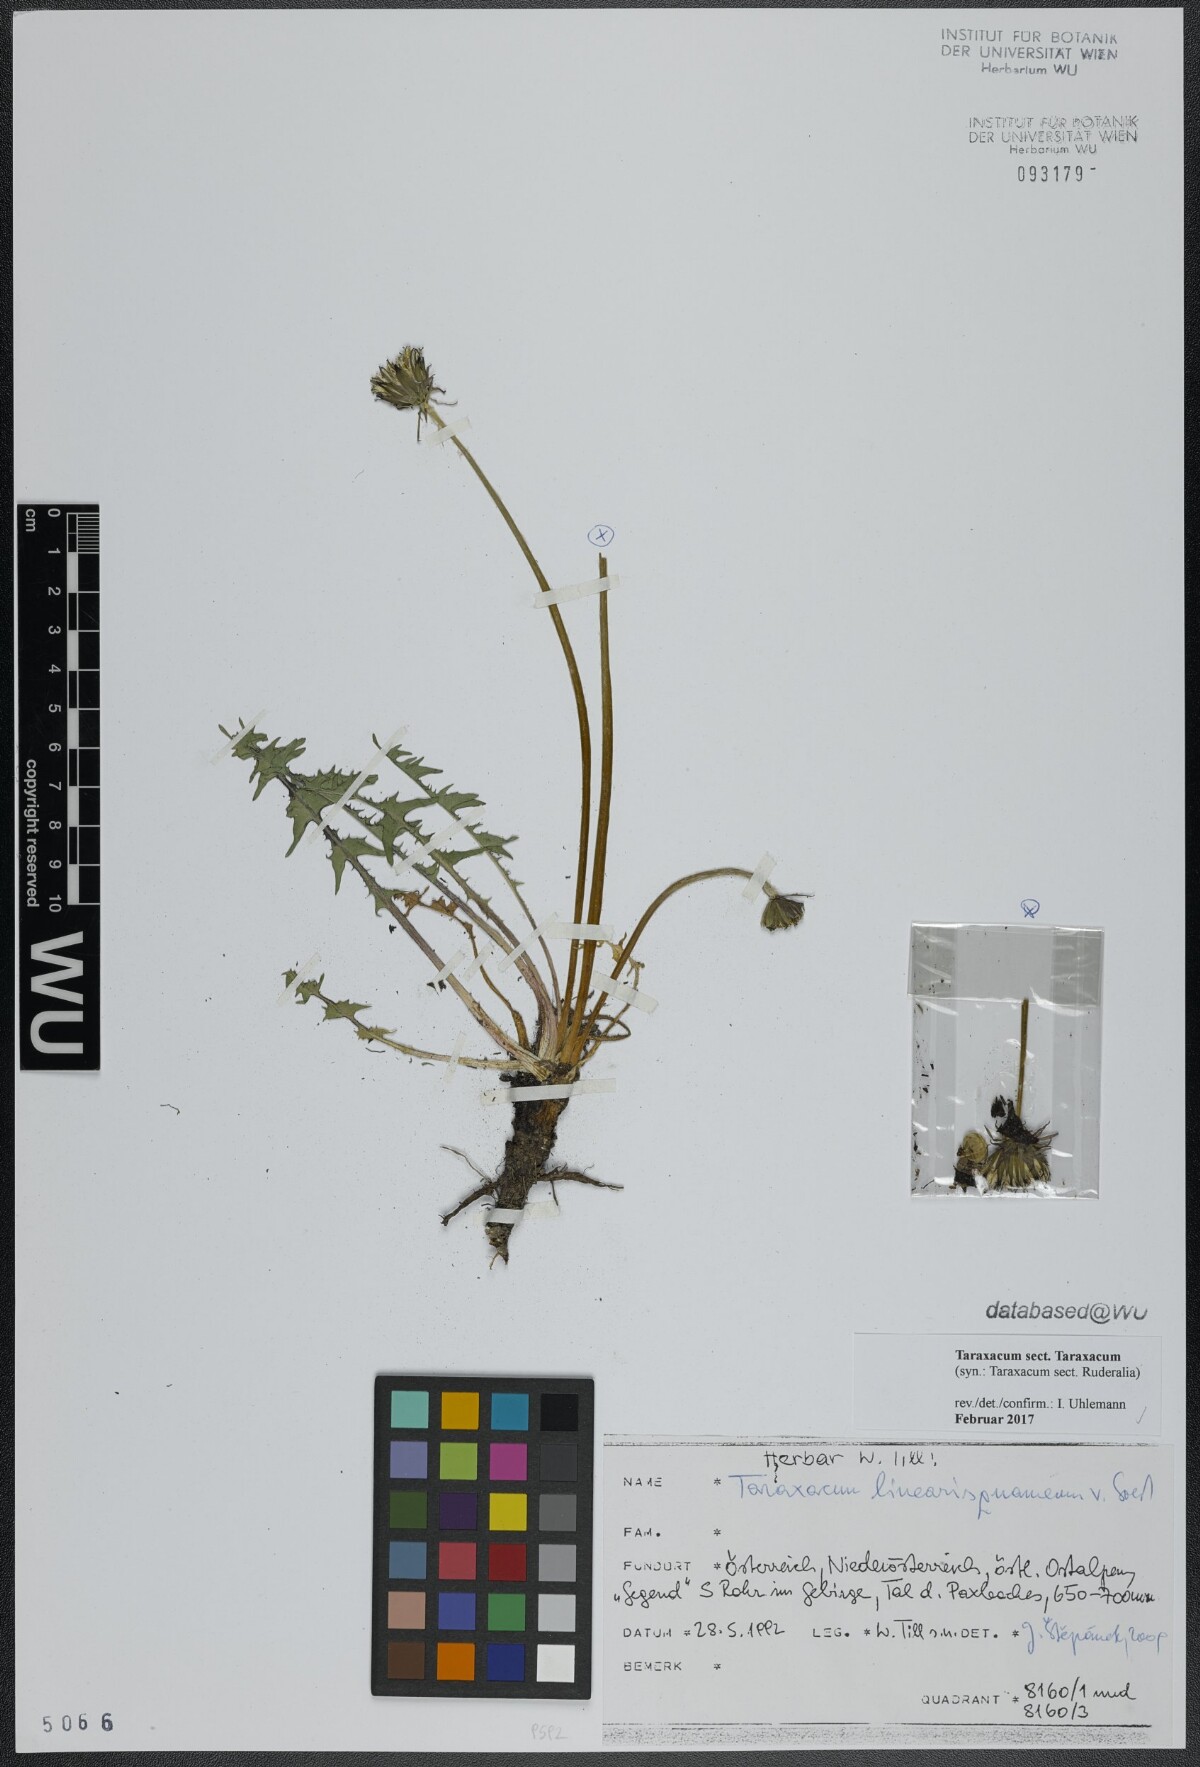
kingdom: Plantae
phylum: Tracheophyta
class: Magnoliopsida
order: Asterales
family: Asteraceae
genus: Taraxacum
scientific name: Taraxacum
